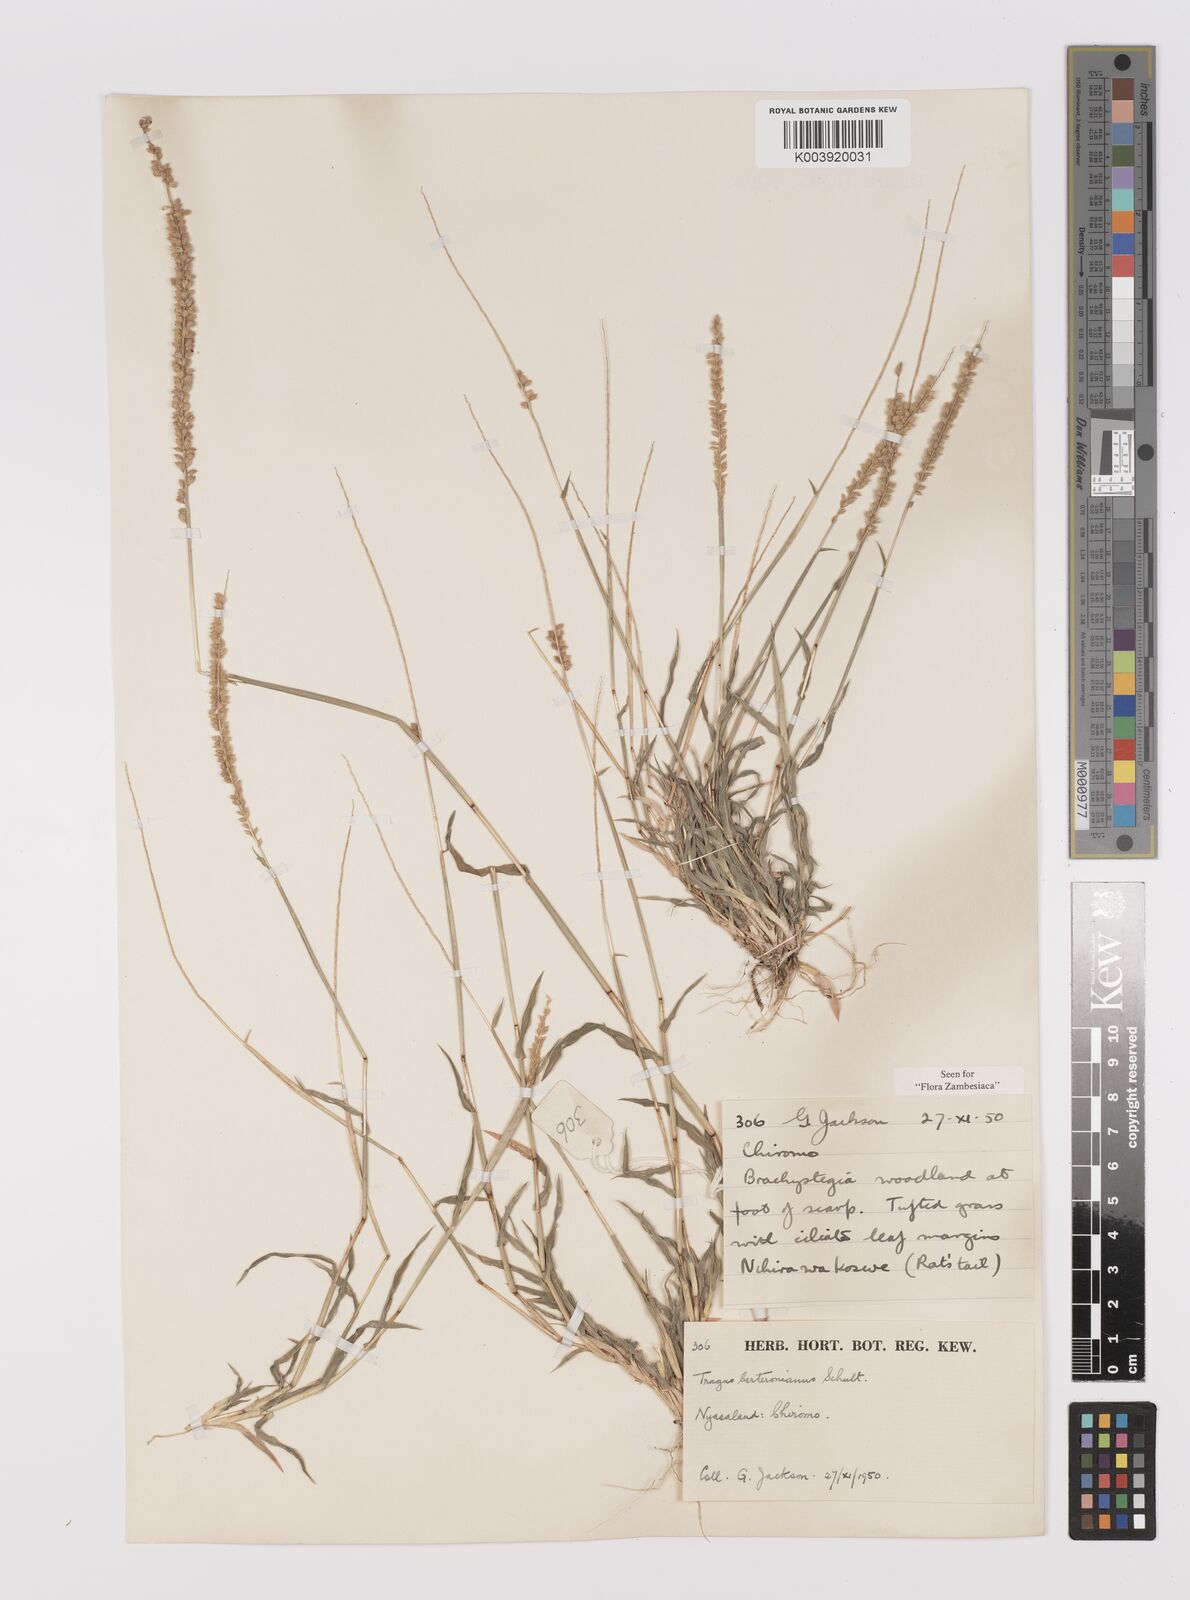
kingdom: Plantae
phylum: Tracheophyta
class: Liliopsida
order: Poales
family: Poaceae
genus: Tragus
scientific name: Tragus berteronianus
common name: African bur-grass
